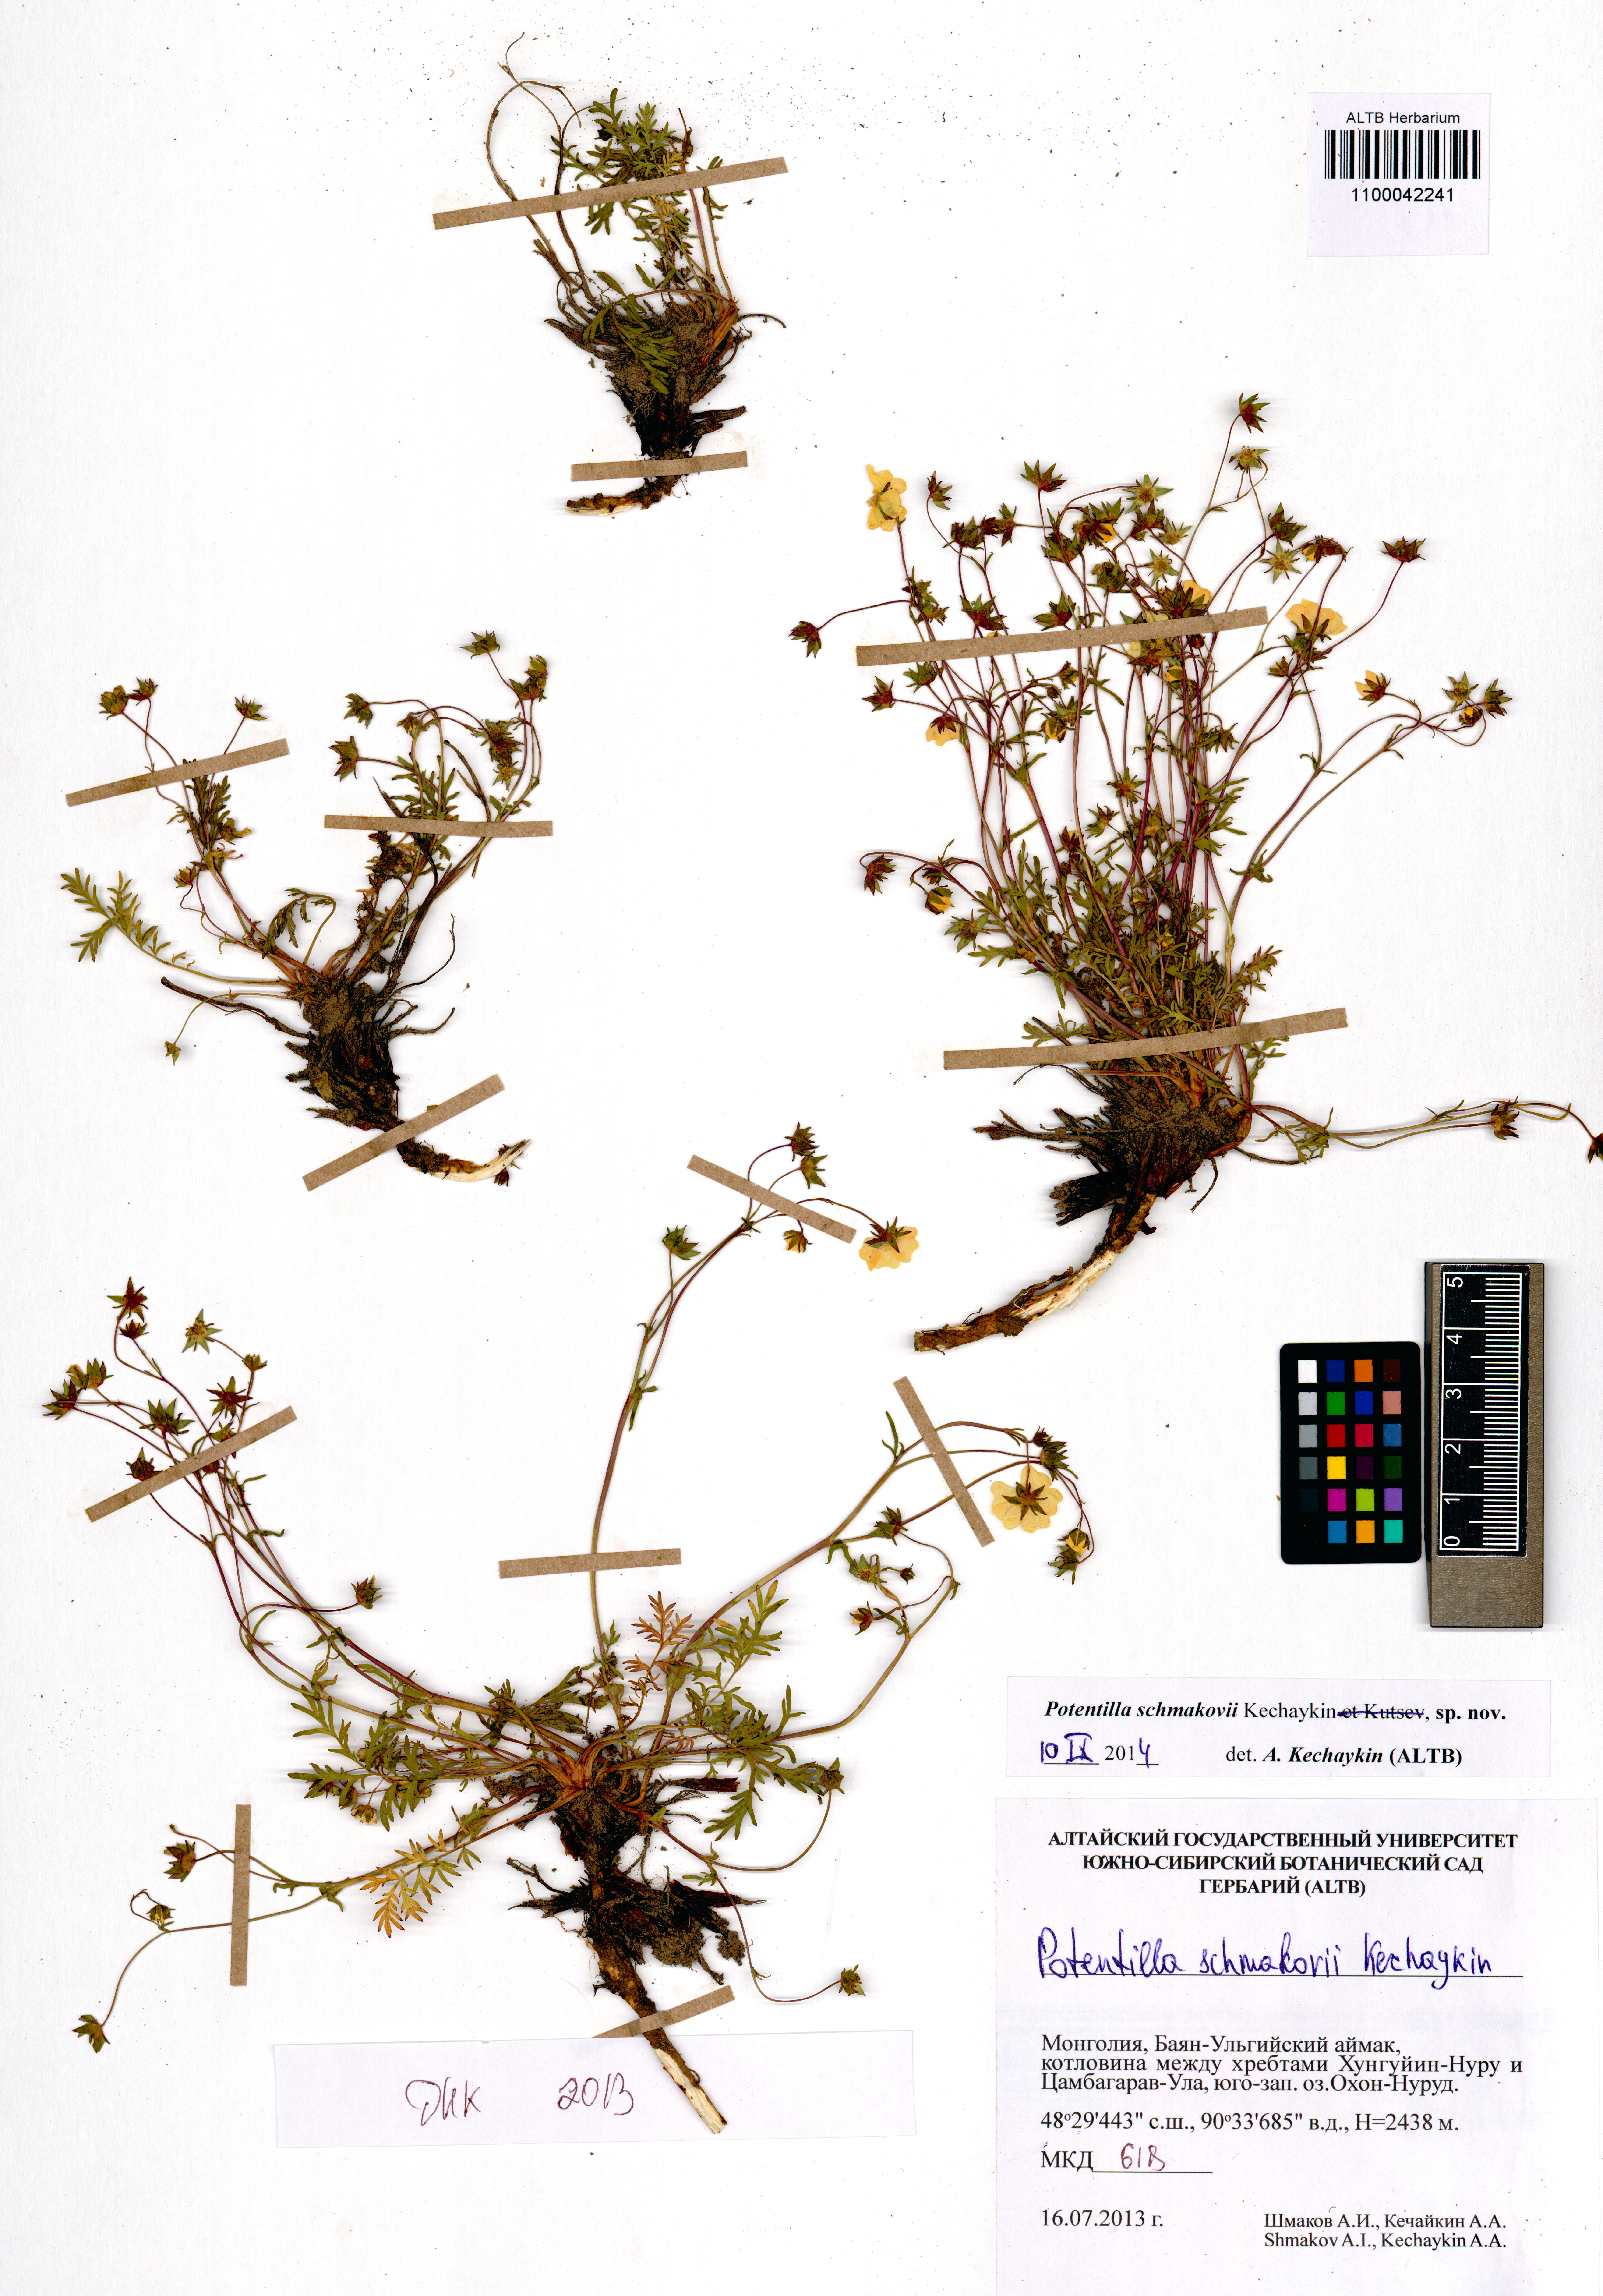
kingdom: Plantae
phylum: Tracheophyta
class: Magnoliopsida
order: Rosales
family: Rosaceae
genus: Potentilla
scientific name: Potentilla schmakovii
